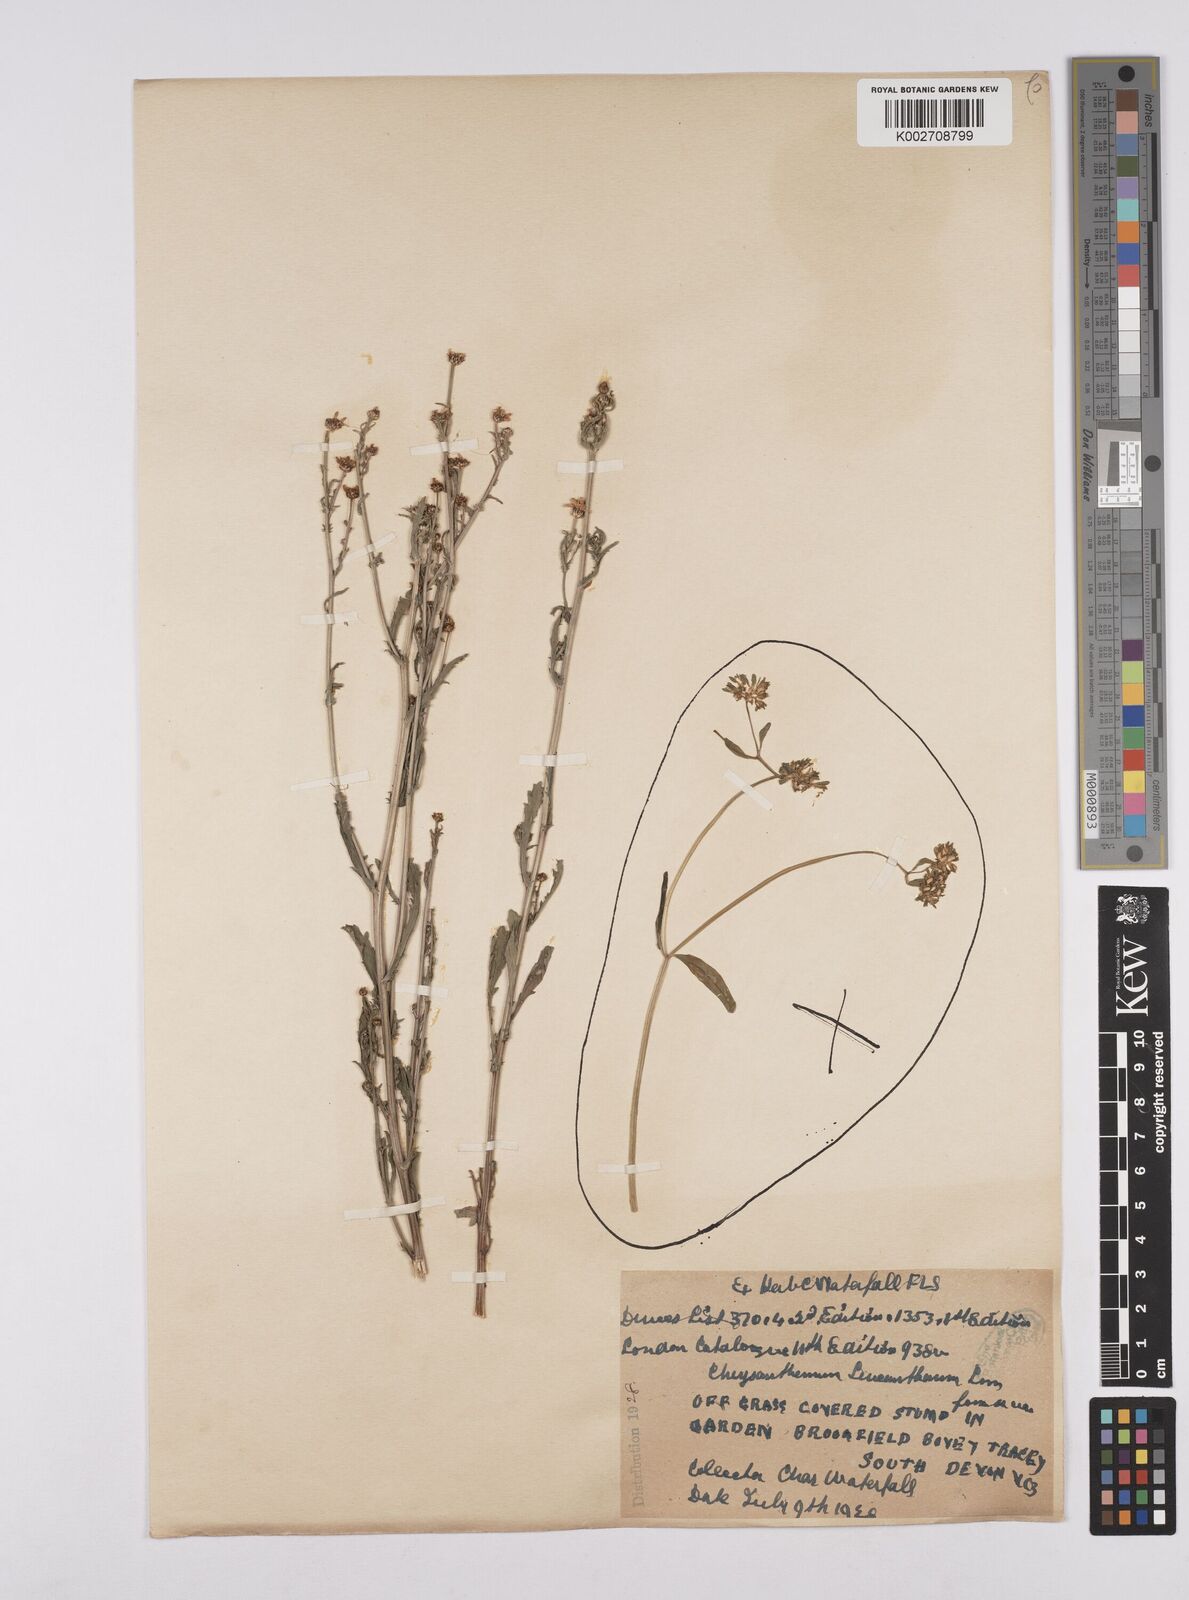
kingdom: Plantae
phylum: Tracheophyta
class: Magnoliopsida
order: Asterales
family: Asteraceae
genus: Leucanthemum
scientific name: Leucanthemum vulgare
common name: Oxeye daisy
